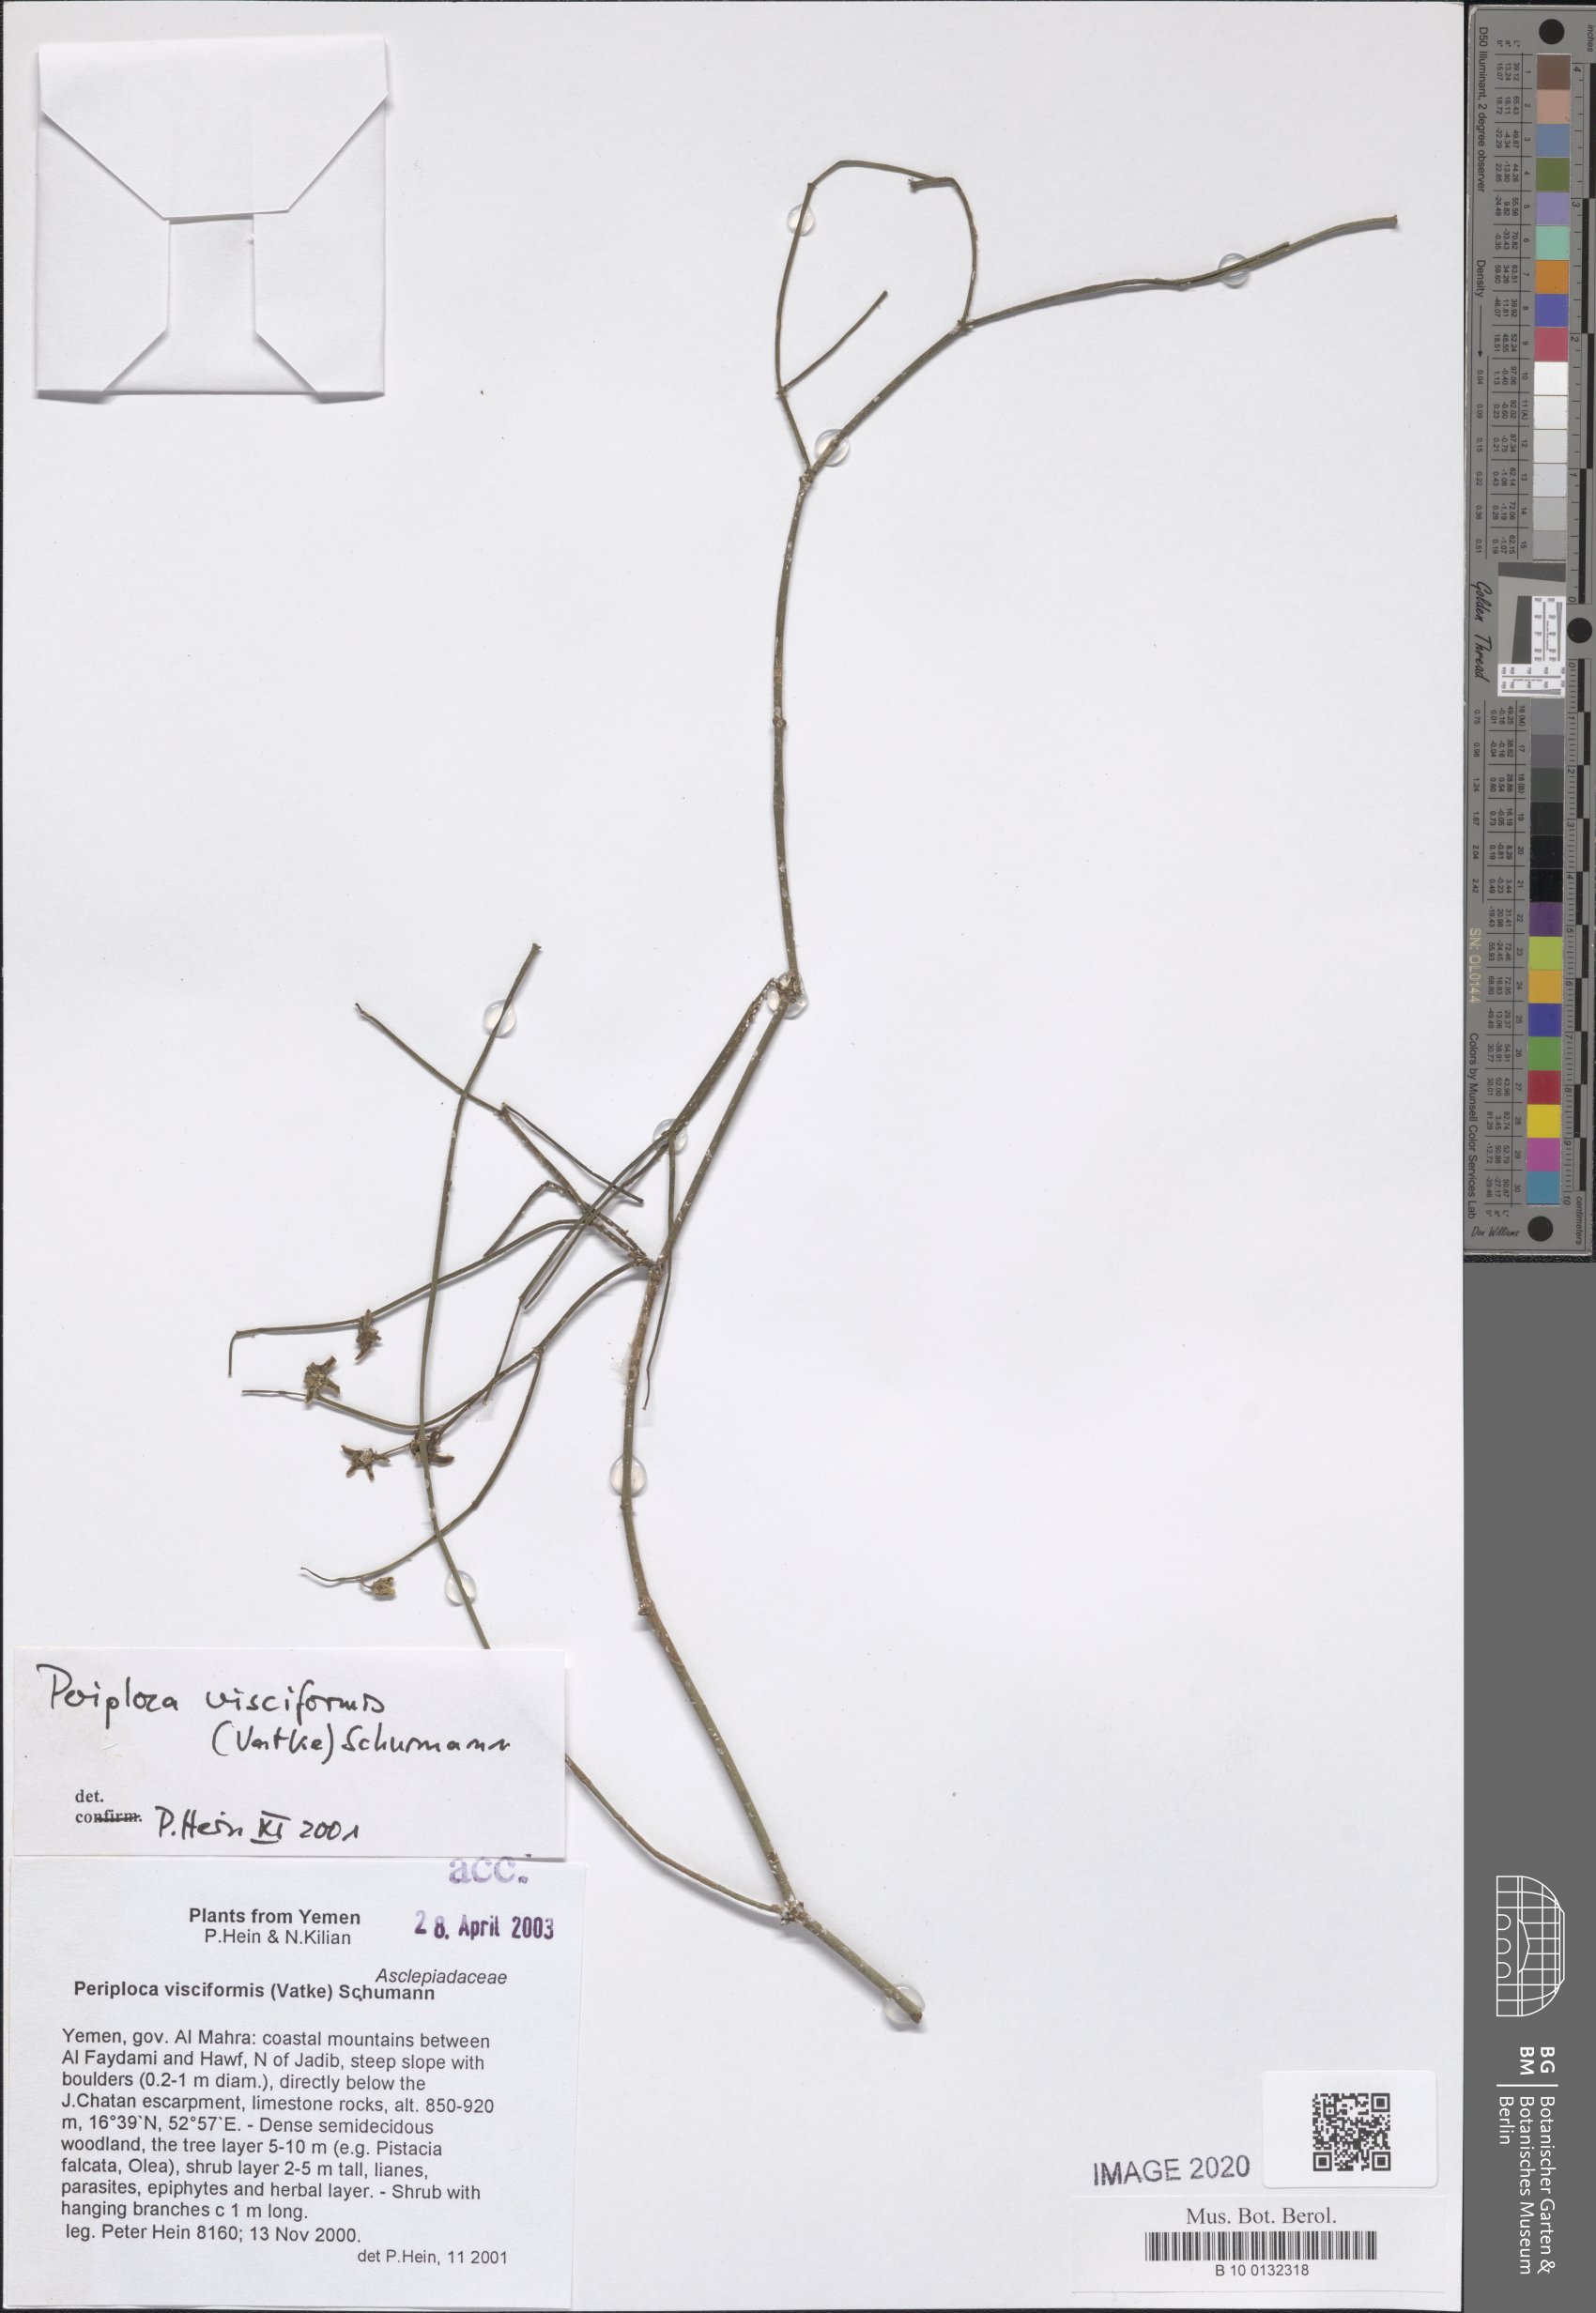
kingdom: Plantae
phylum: Tracheophyta
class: Magnoliopsida
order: Gentianales
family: Apocynaceae
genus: Periploca
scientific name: Periploca visciformis
